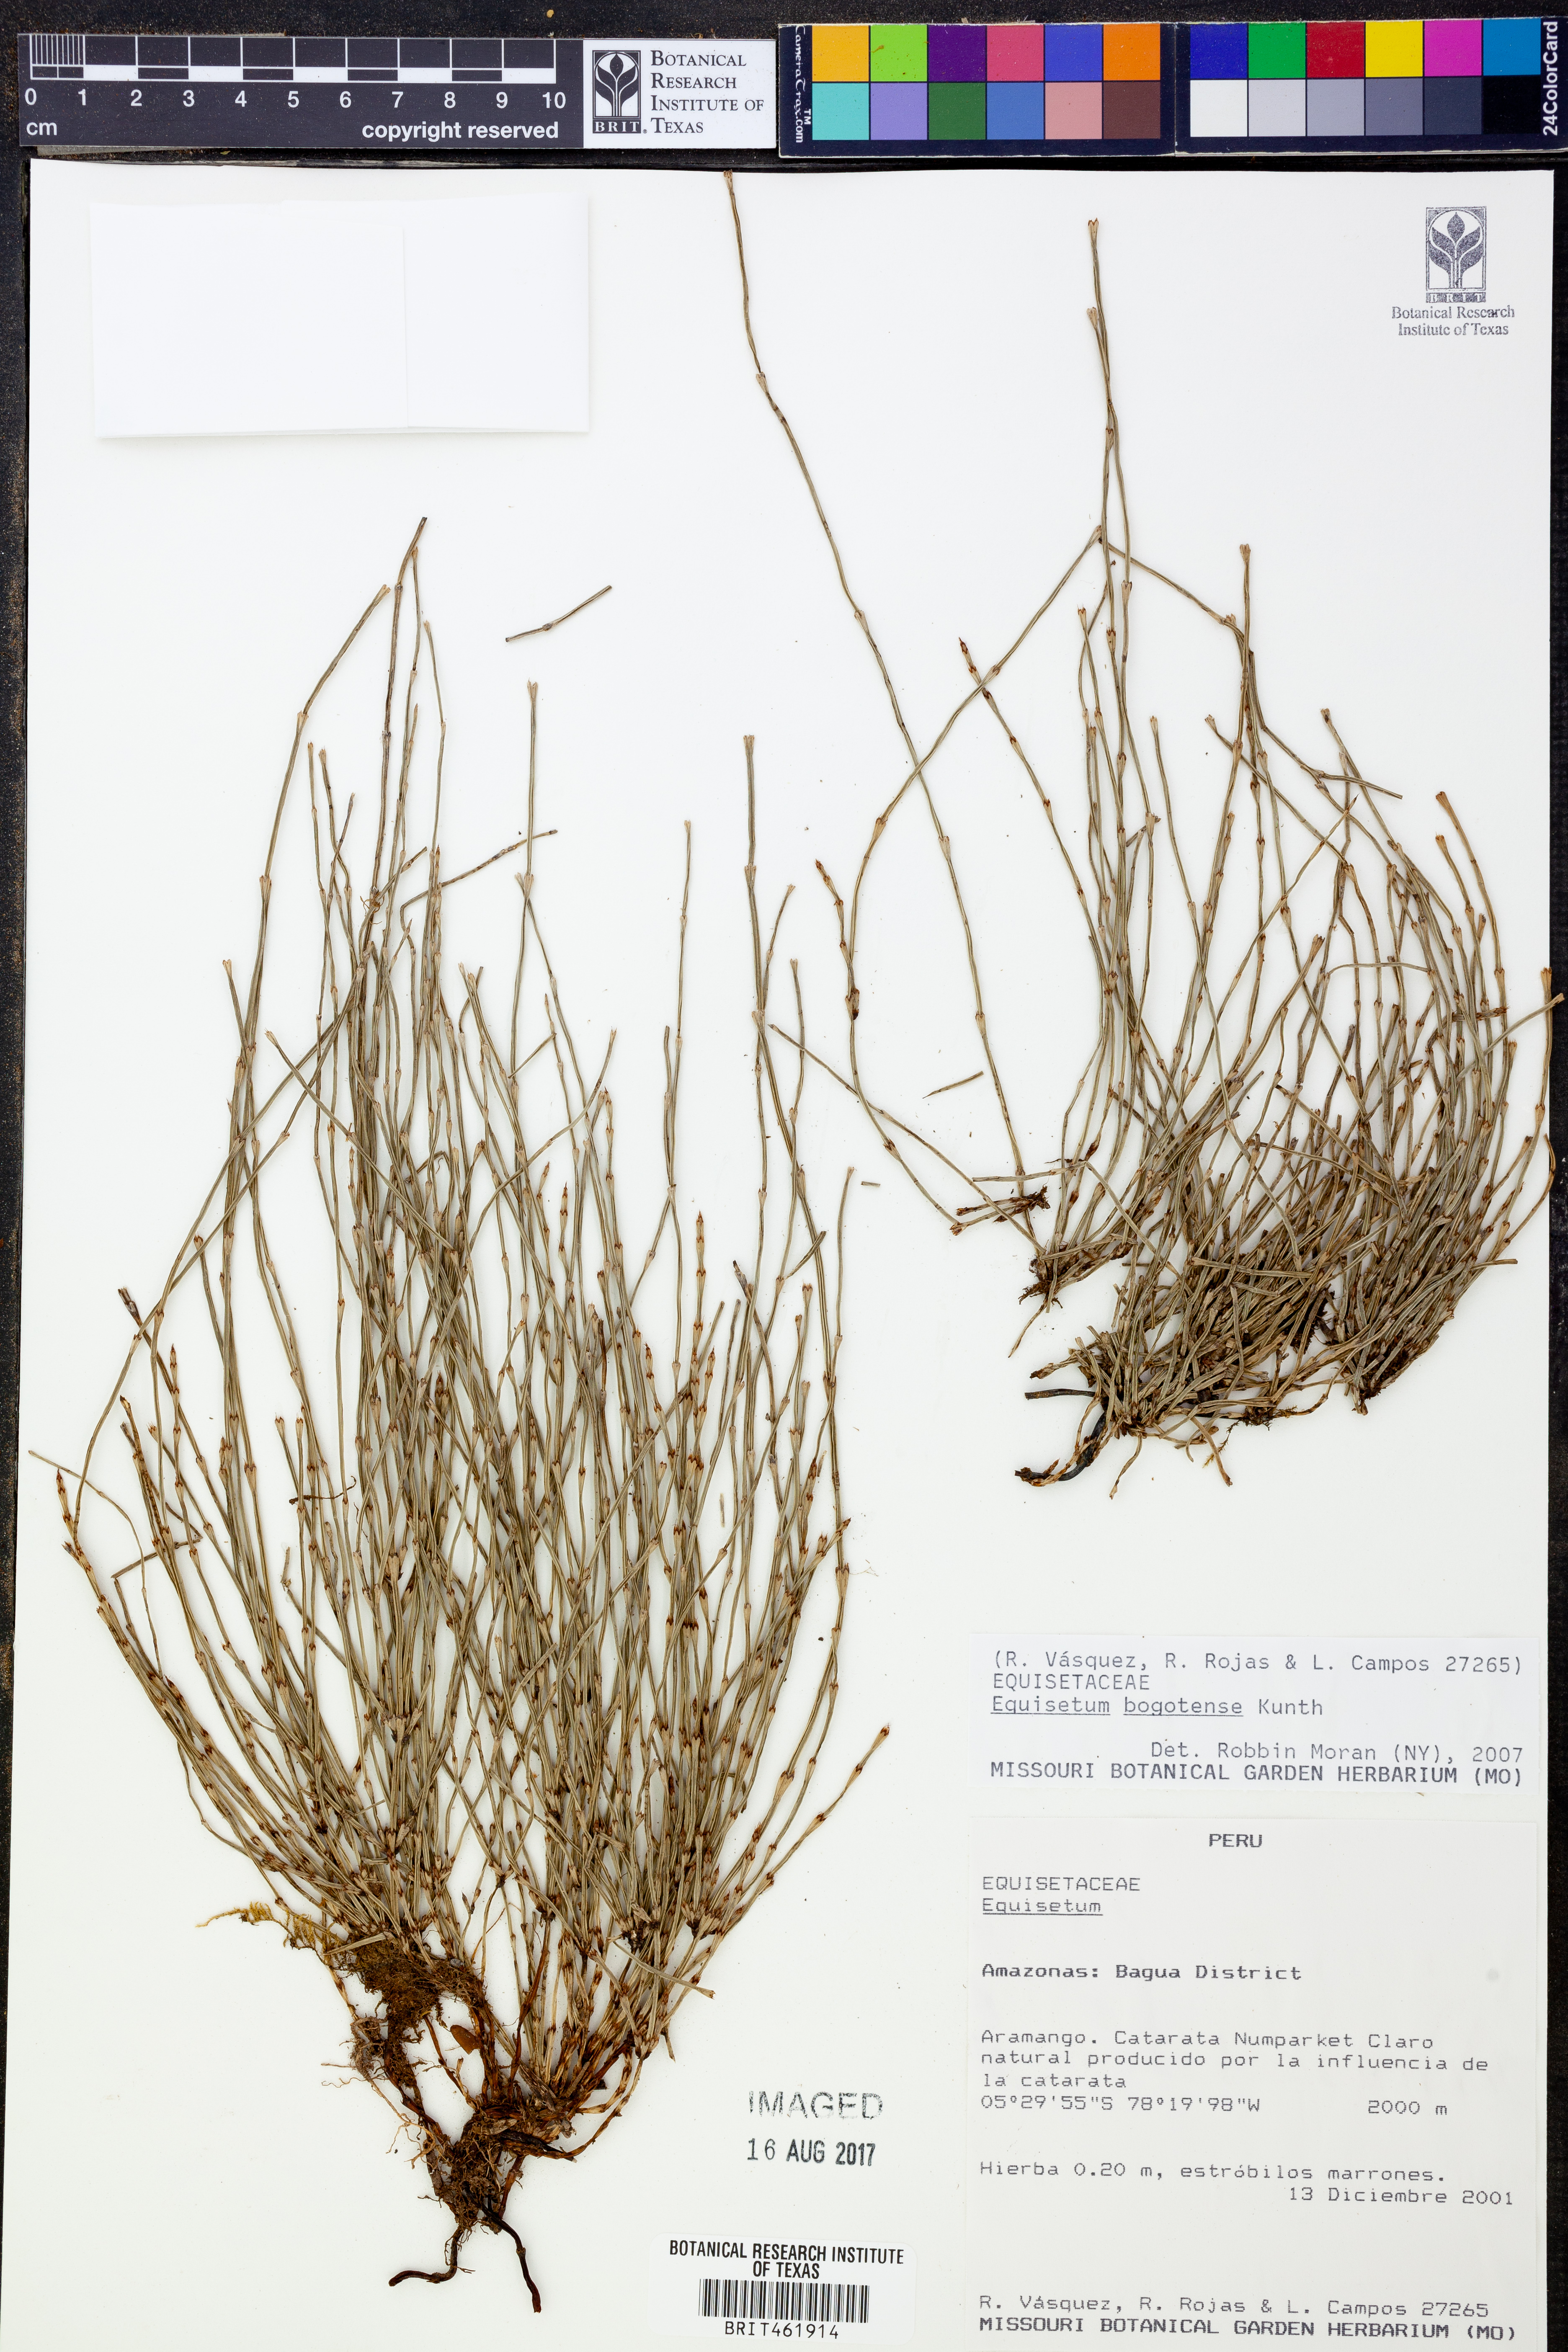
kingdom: Plantae
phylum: Tracheophyta
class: Polypodiopsida
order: Equisetales
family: Equisetaceae
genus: Equisetum
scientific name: Equisetum bogotense
